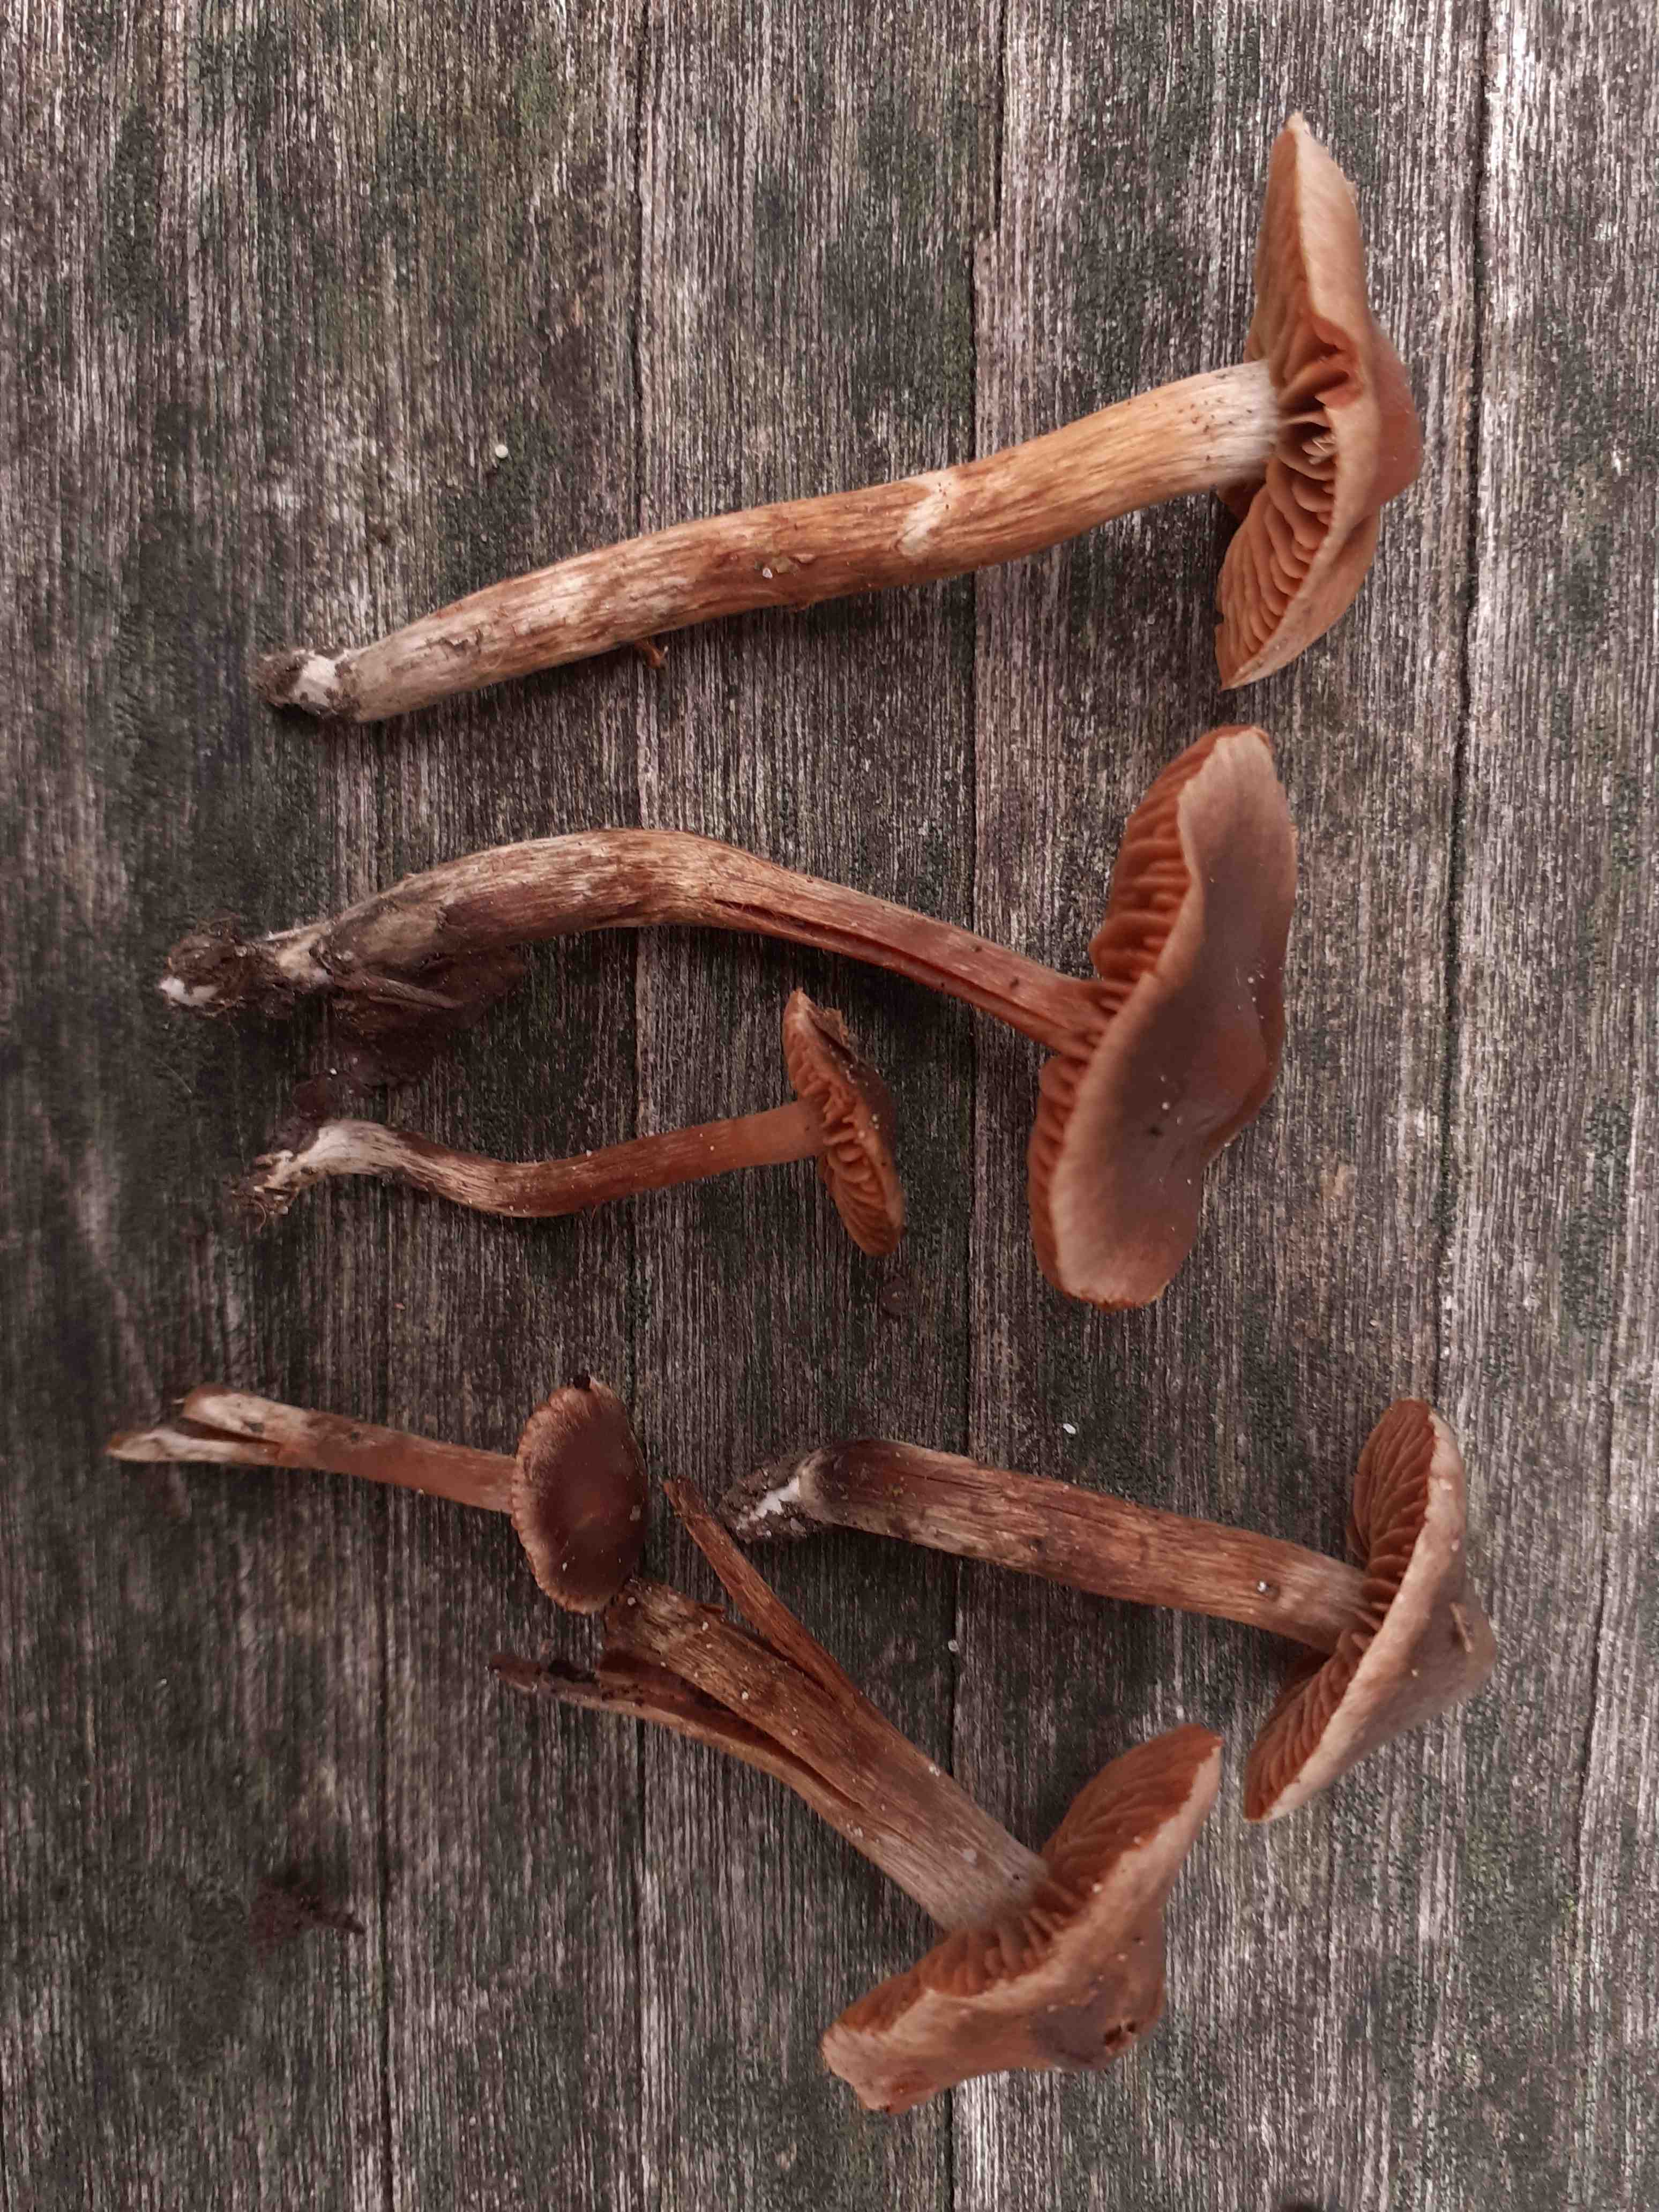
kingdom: Fungi
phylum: Basidiomycota
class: Agaricomycetes
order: Agaricales
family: Cortinariaceae
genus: Cortinarius
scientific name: Cortinarius megacystidiosus
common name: lavbæltet slørhat
